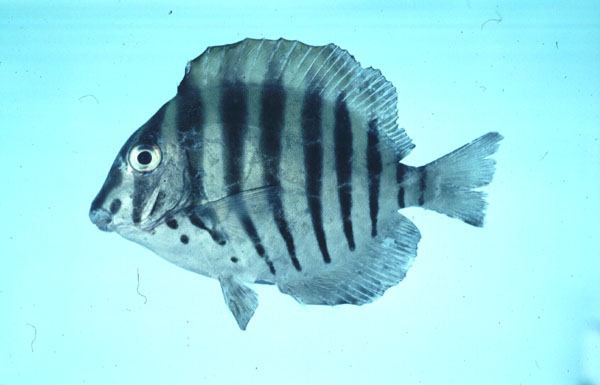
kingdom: Animalia
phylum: Chordata
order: Perciformes
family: Acanthuridae
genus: Acanthurus
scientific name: Acanthurus polyzona
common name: Black-barred surgeonfish
